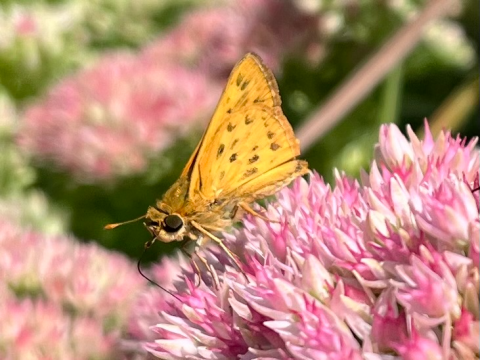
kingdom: Animalia
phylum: Arthropoda
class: Insecta
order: Lepidoptera
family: Hesperiidae
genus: Hylephila
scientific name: Hylephila phyleus
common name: Fiery Skipper
